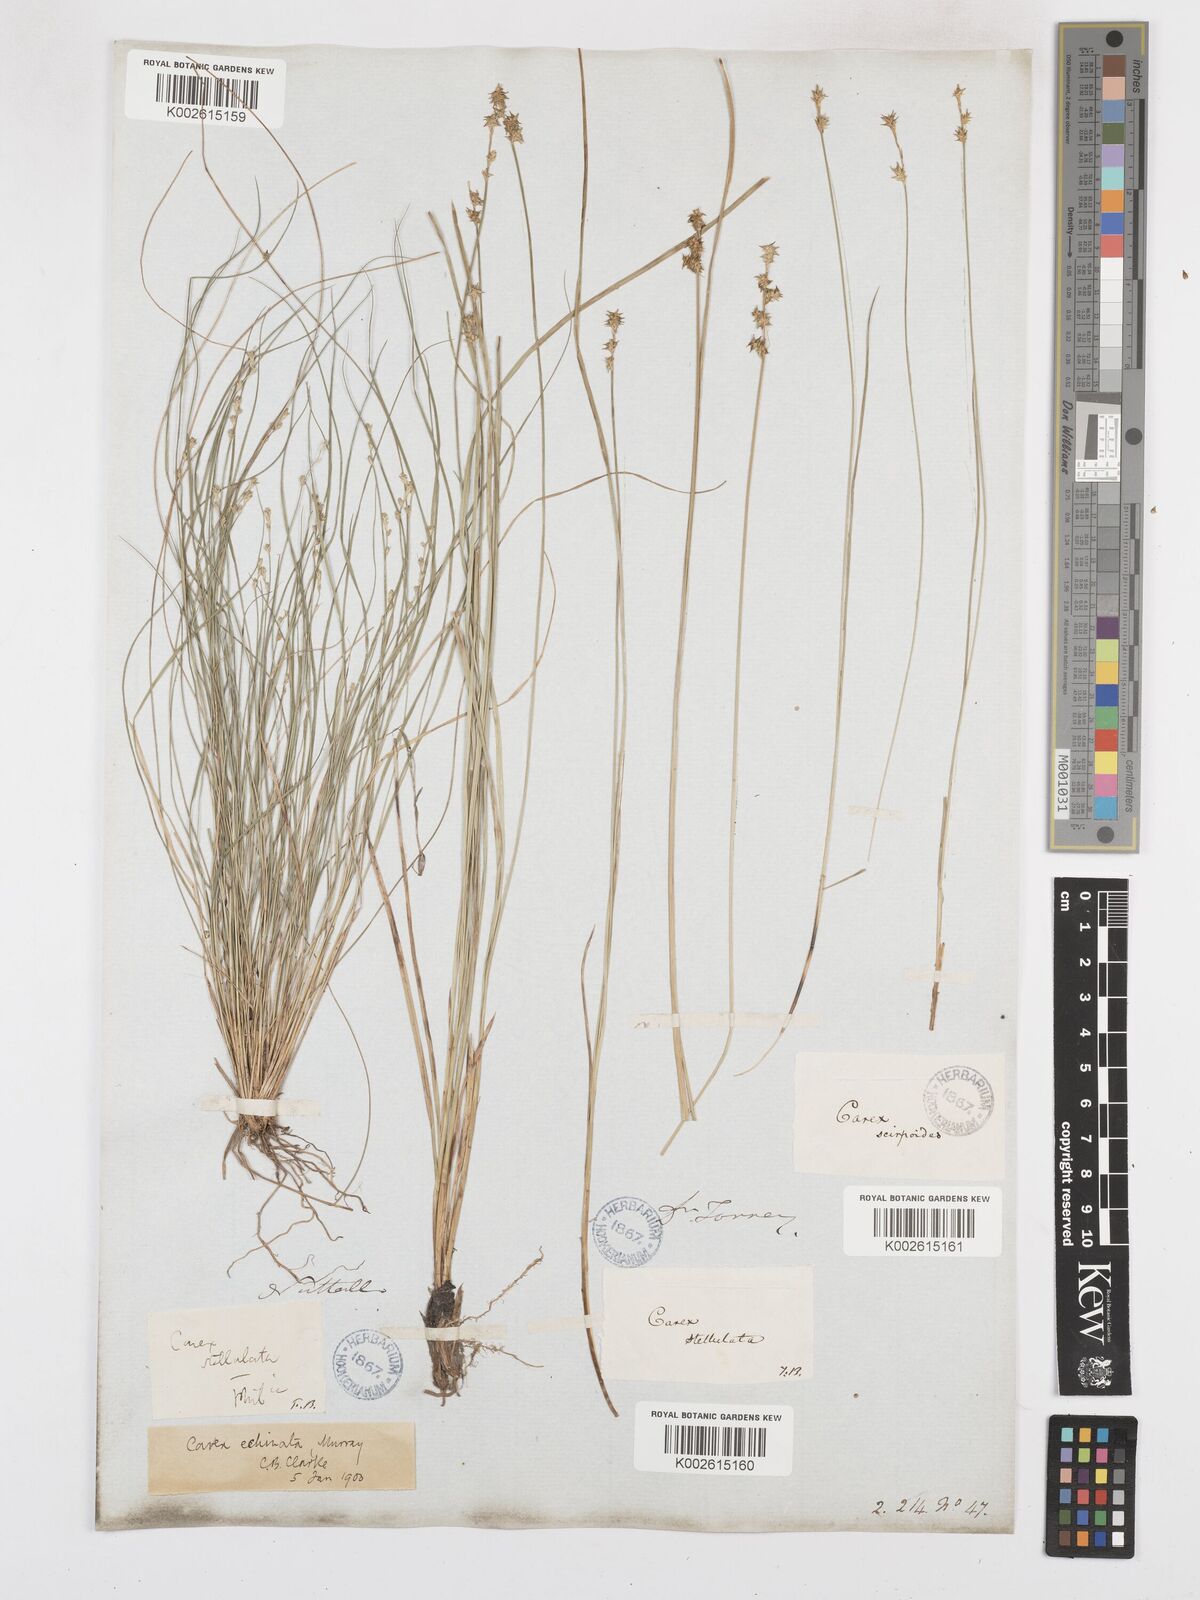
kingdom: Plantae
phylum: Tracheophyta
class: Liliopsida
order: Poales
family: Cyperaceae
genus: Carex
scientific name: Carex echinata
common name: Star sedge
